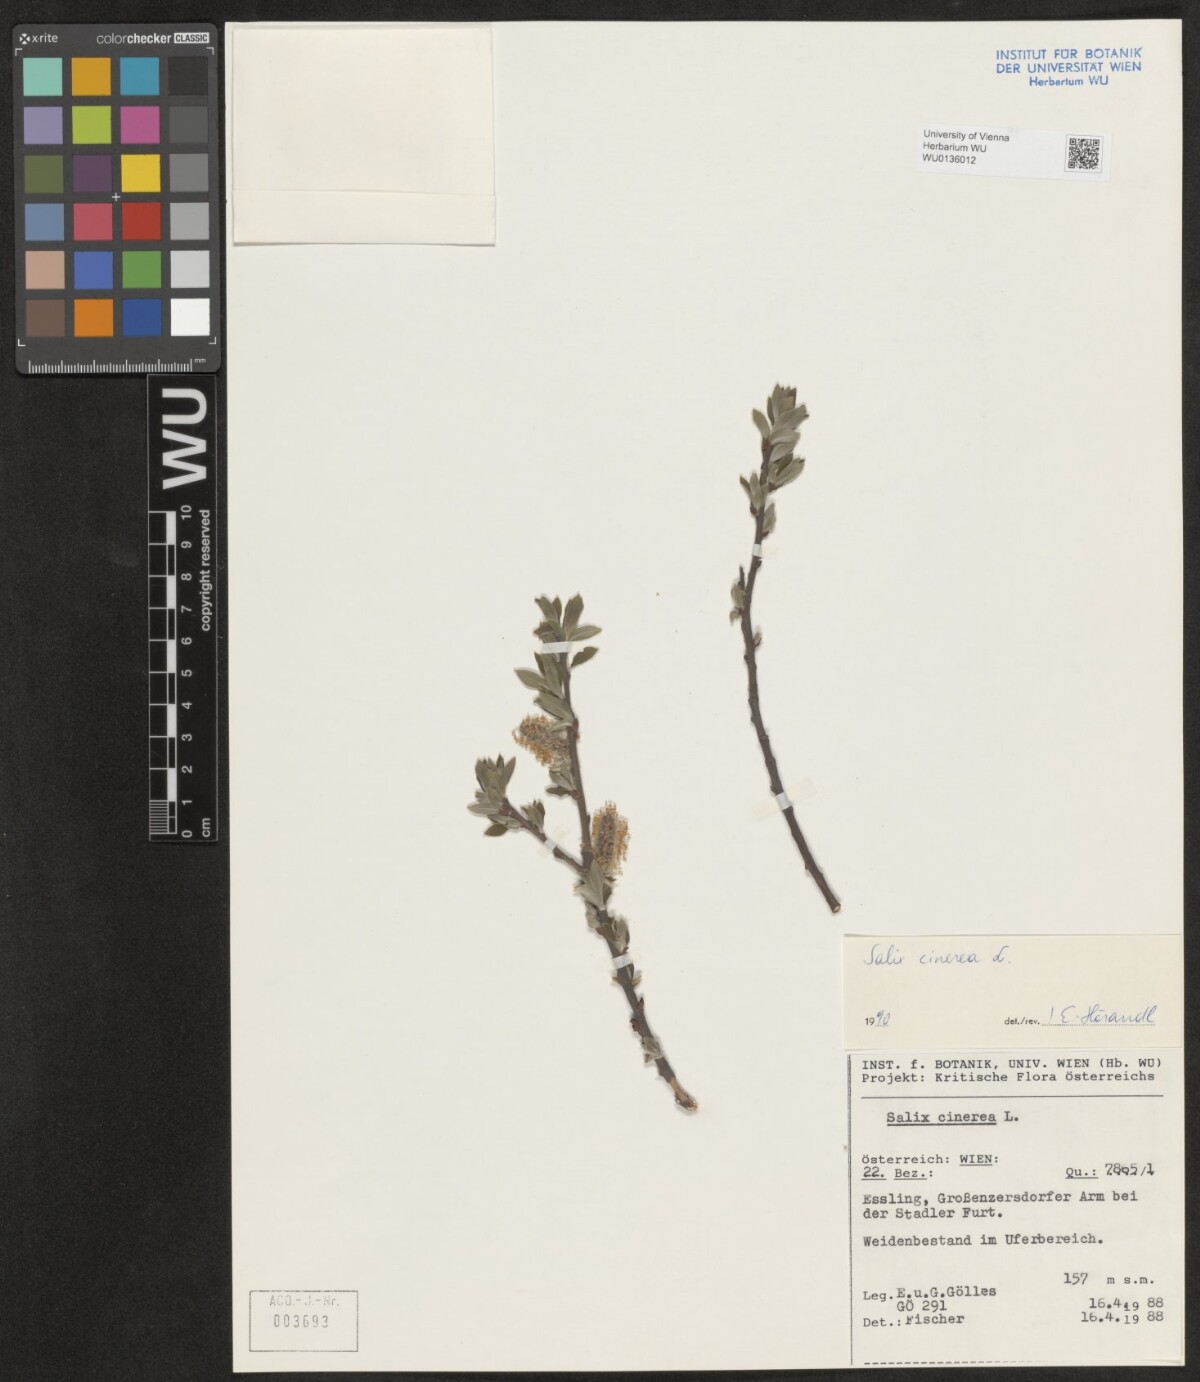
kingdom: Plantae
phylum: Tracheophyta
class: Magnoliopsida
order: Malpighiales
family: Salicaceae
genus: Salix
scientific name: Salix cinerea
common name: Common sallow
